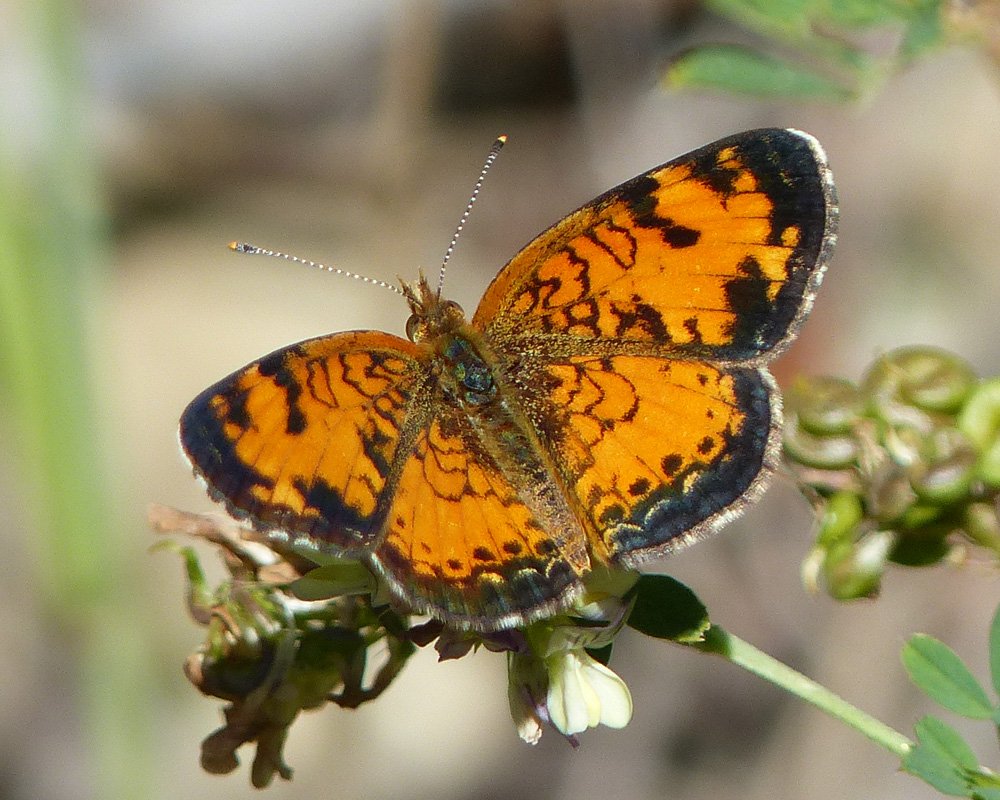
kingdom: Animalia
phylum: Arthropoda
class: Insecta
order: Lepidoptera
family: Nymphalidae
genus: Phyciodes
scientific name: Phyciodes tharos
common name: Northern Crescent
